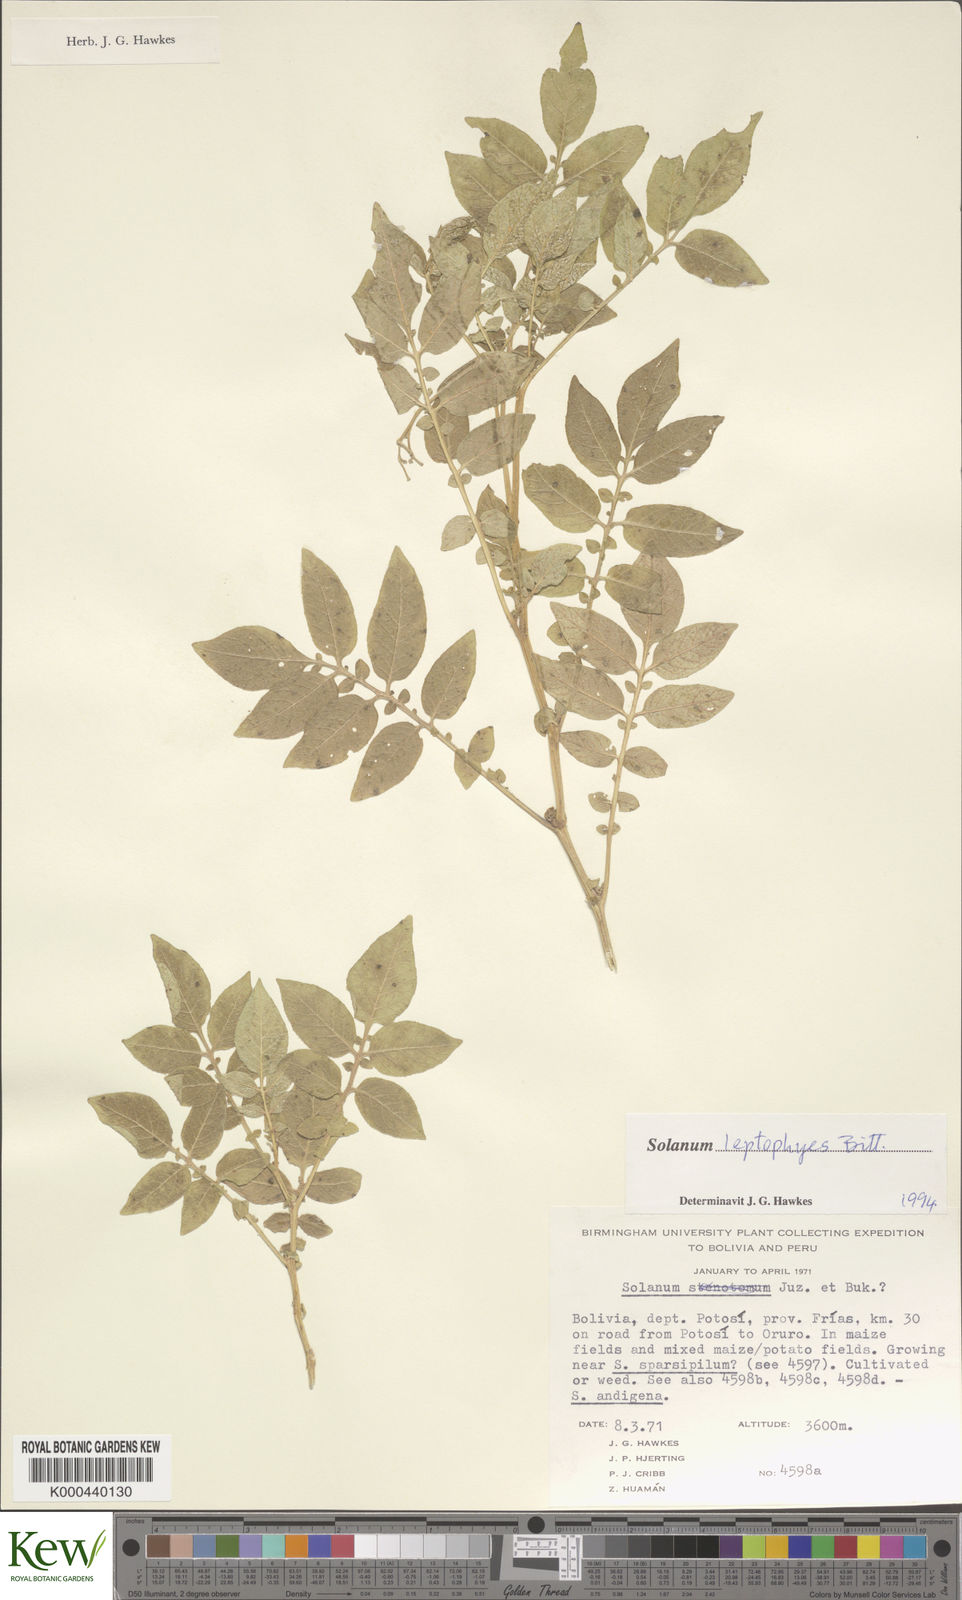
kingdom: Plantae
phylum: Tracheophyta
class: Magnoliopsida
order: Solanales
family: Solanaceae
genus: Solanum
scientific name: Solanum brevicaule
